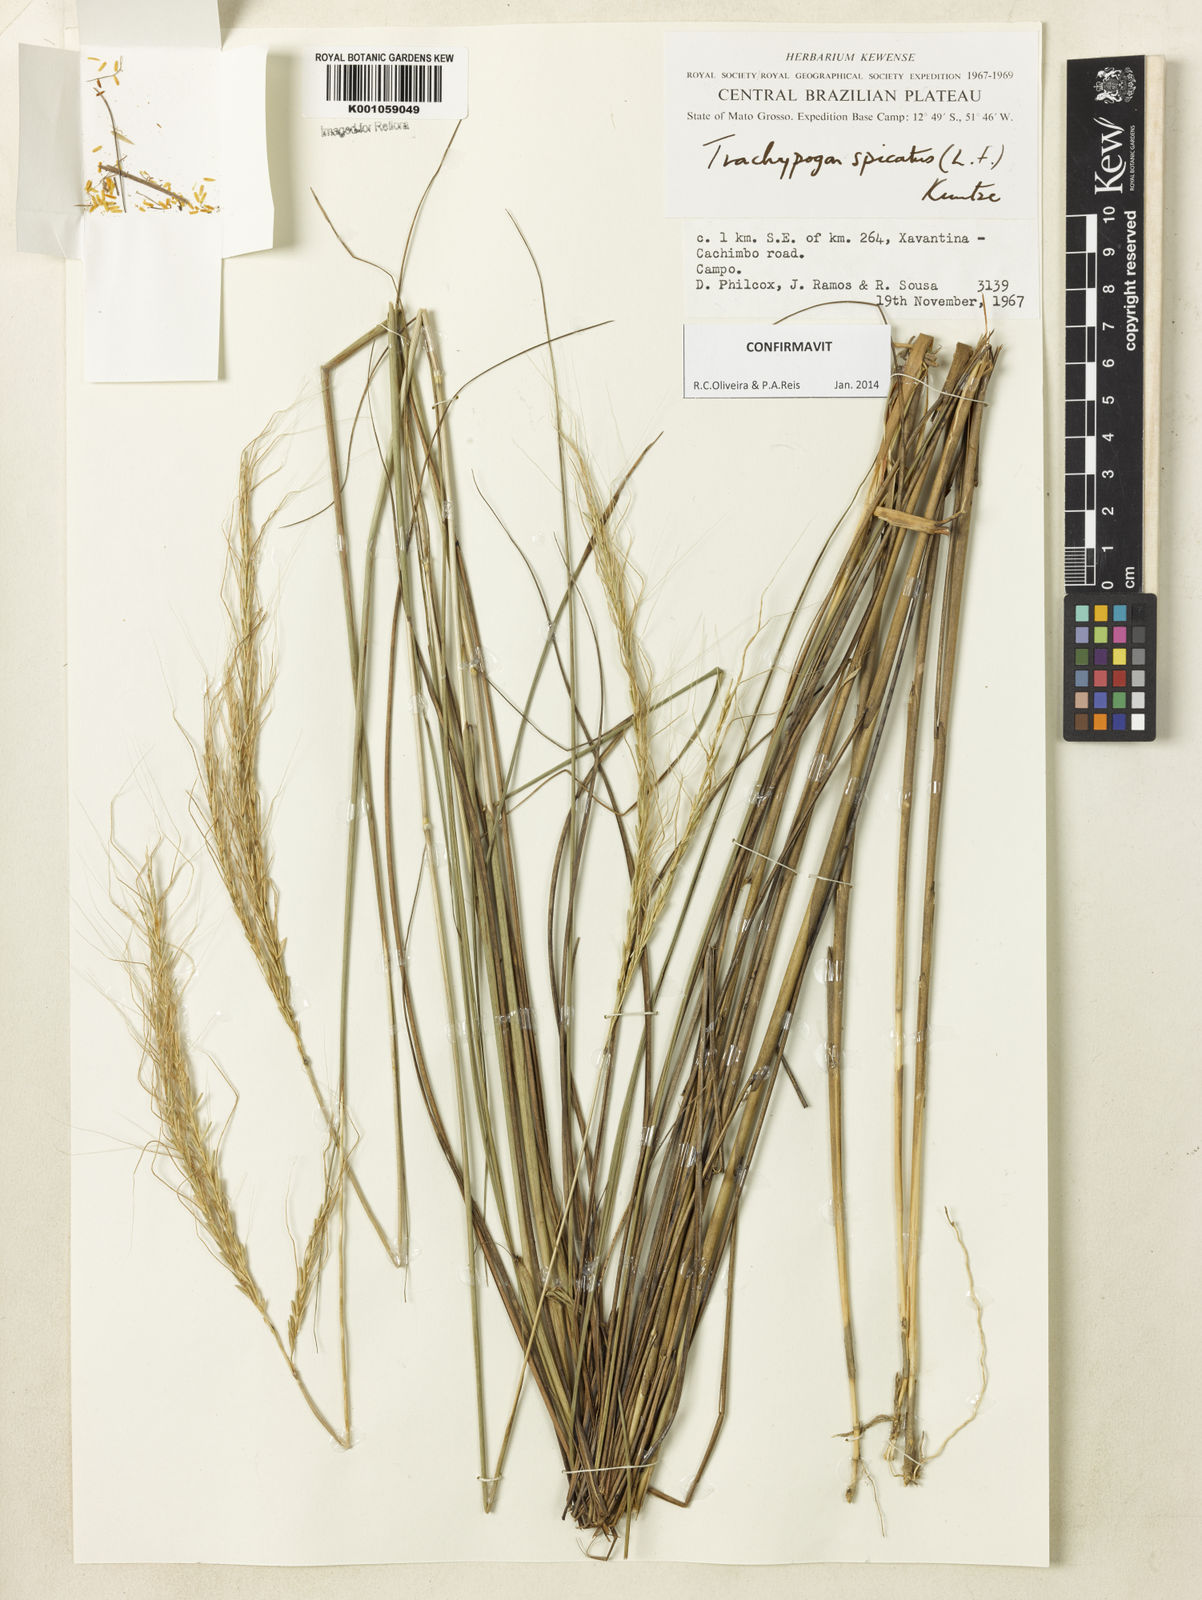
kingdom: Plantae
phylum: Tracheophyta
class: Liliopsida
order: Poales
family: Poaceae
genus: Trachypogon
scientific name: Trachypogon spicatus
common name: Crinkle-awn
